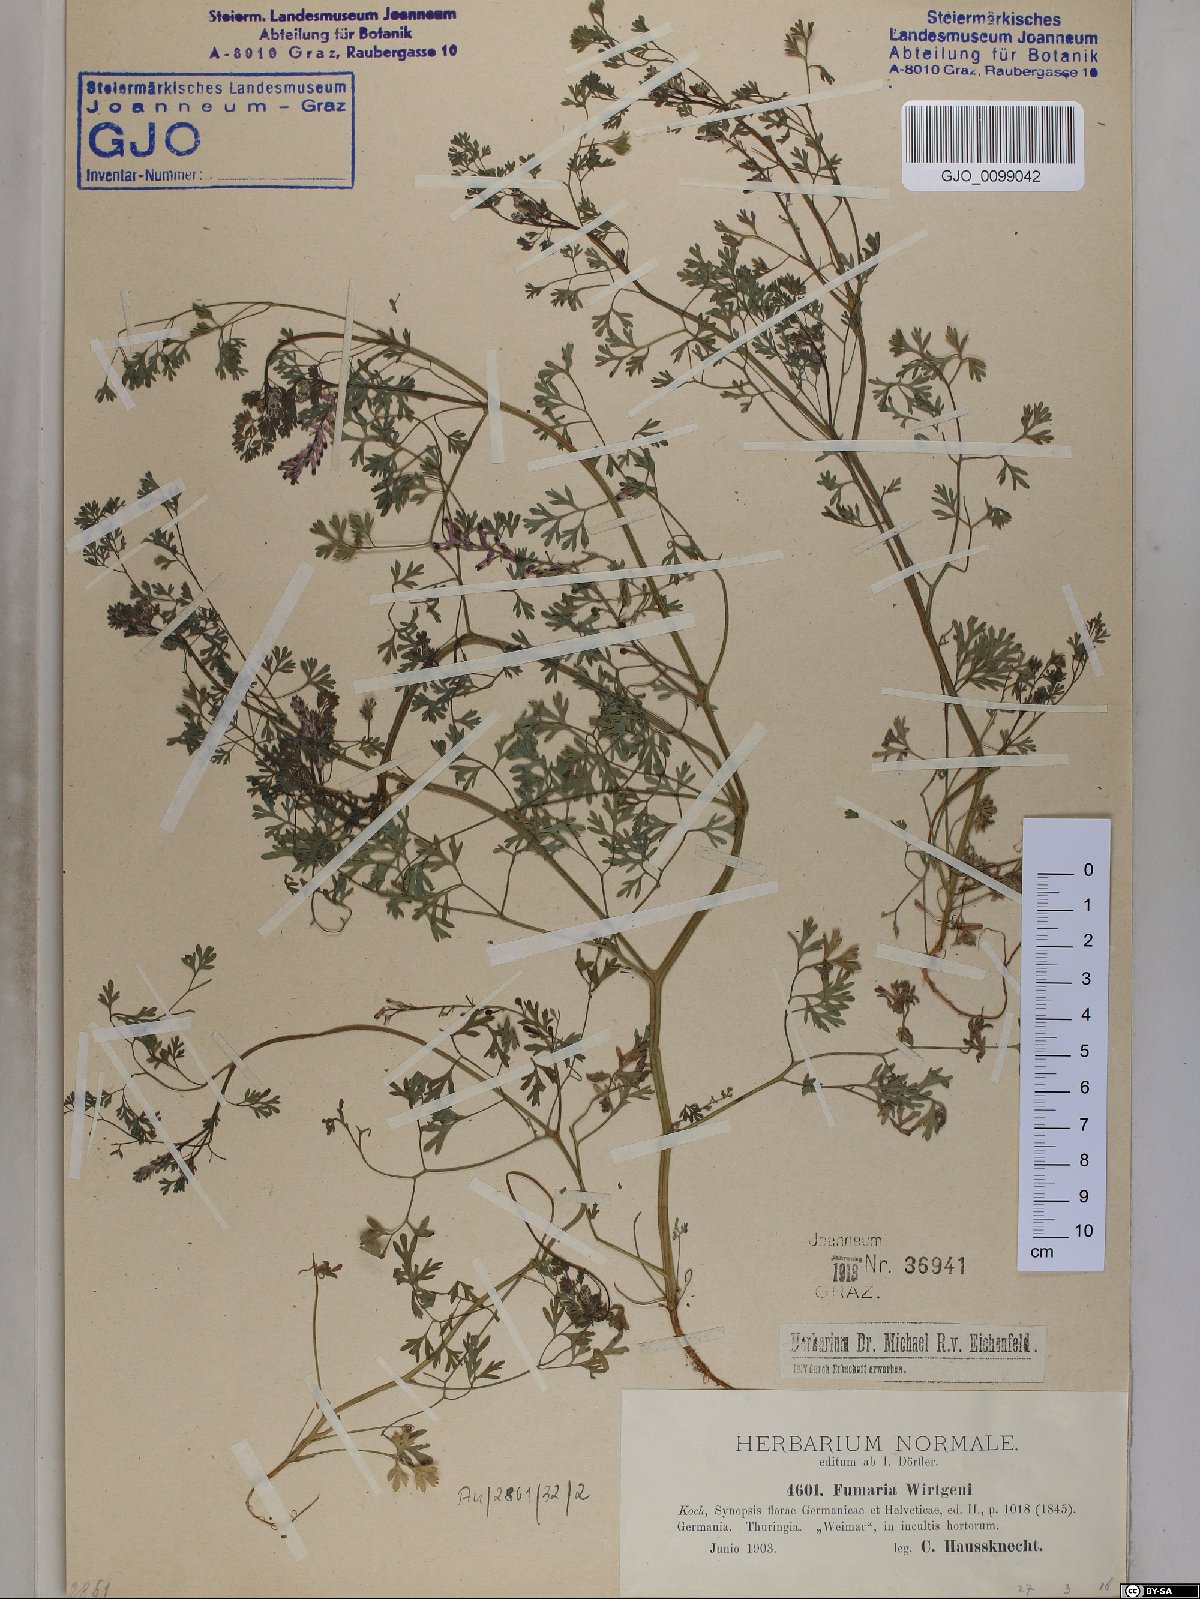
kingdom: Plantae
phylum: Tracheophyta
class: Magnoliopsida
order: Ranunculales
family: Papaveraceae
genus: Fumaria
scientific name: Fumaria wirtgenii
